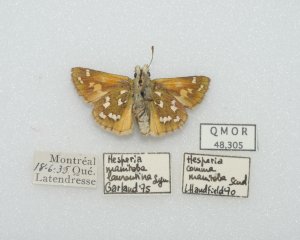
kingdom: Animalia
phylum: Arthropoda
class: Insecta
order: Lepidoptera
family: Hesperiidae
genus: Hesperia
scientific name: Hesperia comma
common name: Common Branded Skipper
